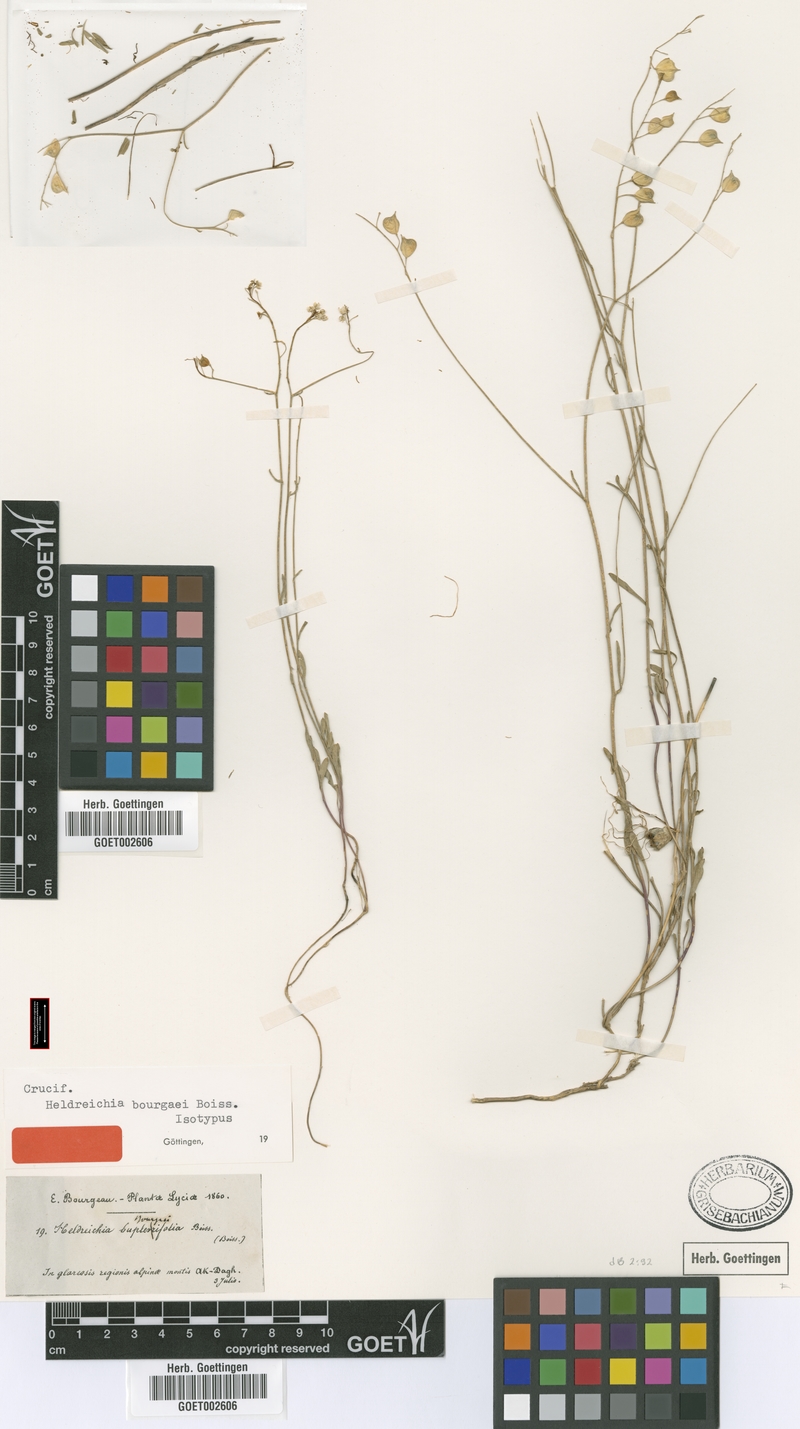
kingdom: Plantae
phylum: Tracheophyta
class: Magnoliopsida
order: Brassicales
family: Brassicaceae
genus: Heldreichia
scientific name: Heldreichia bupleurifolia
